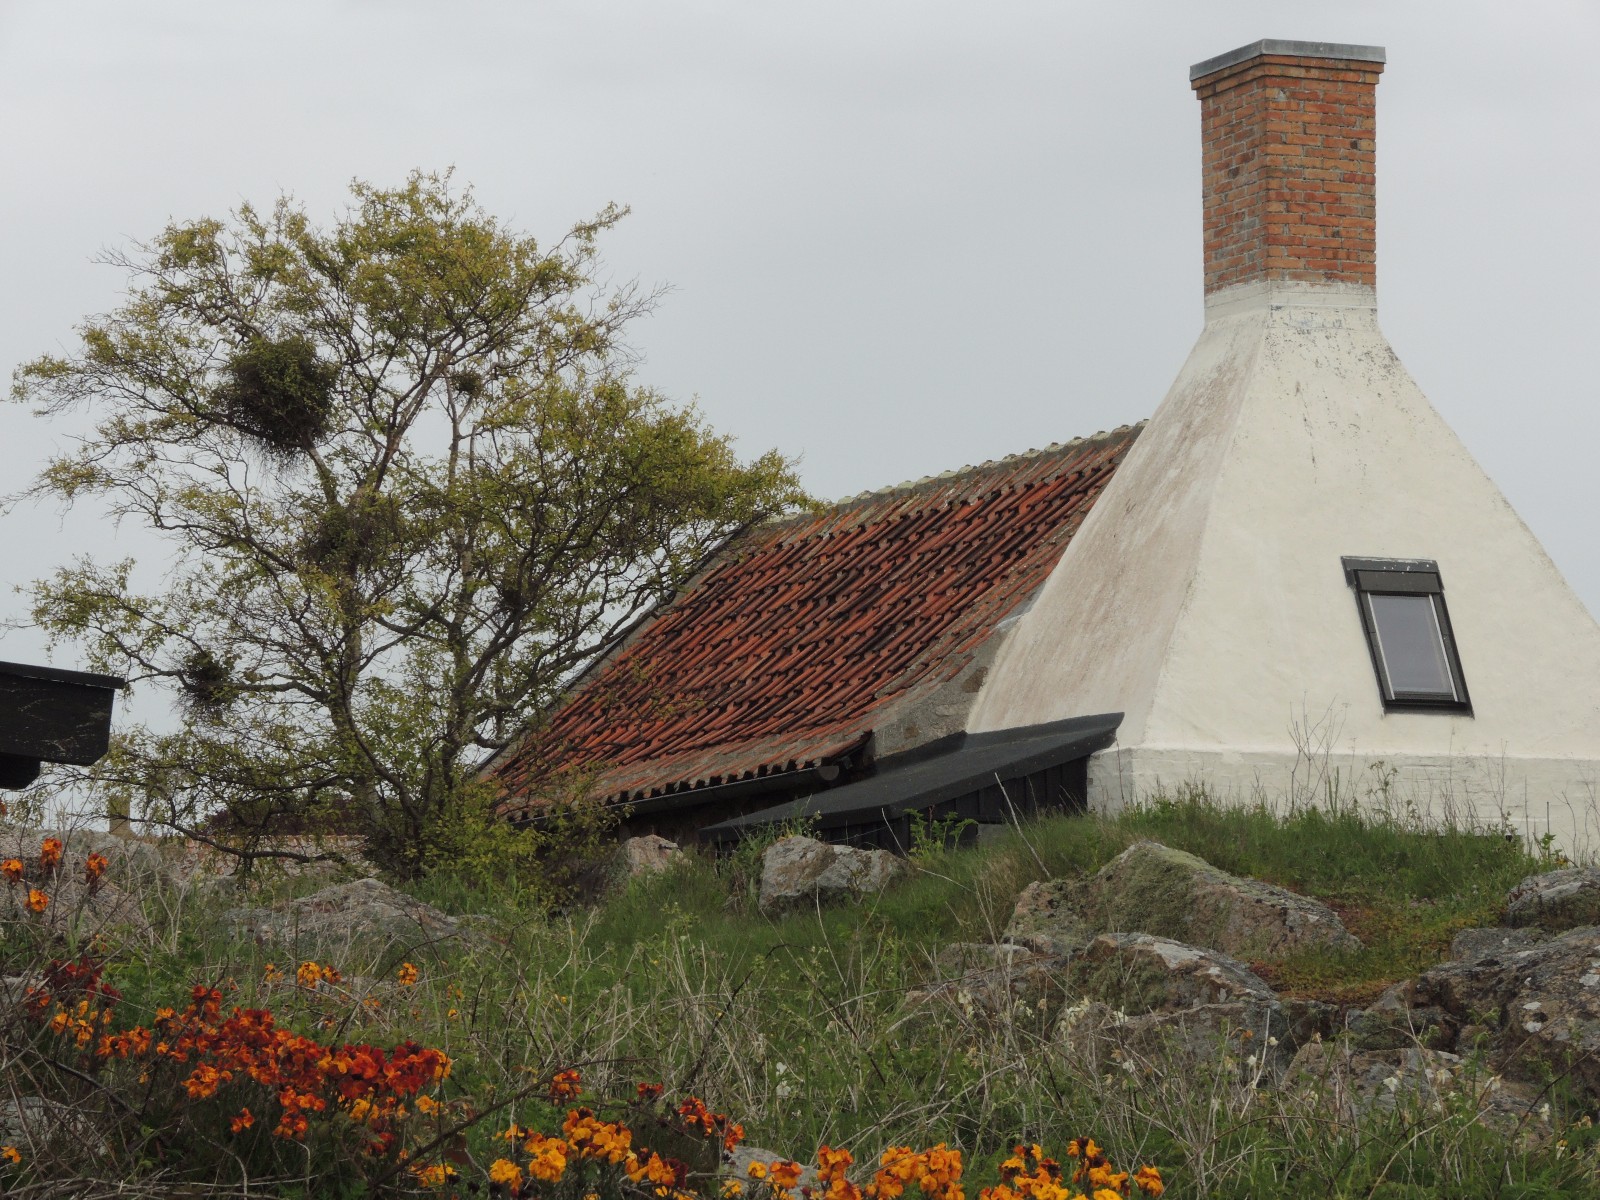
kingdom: Fungi
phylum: Ascomycota
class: Taphrinomycetes
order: Taphrinales
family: Taphrinaceae
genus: Taphrina
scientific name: Taphrina betulina
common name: hekse-sækdug
